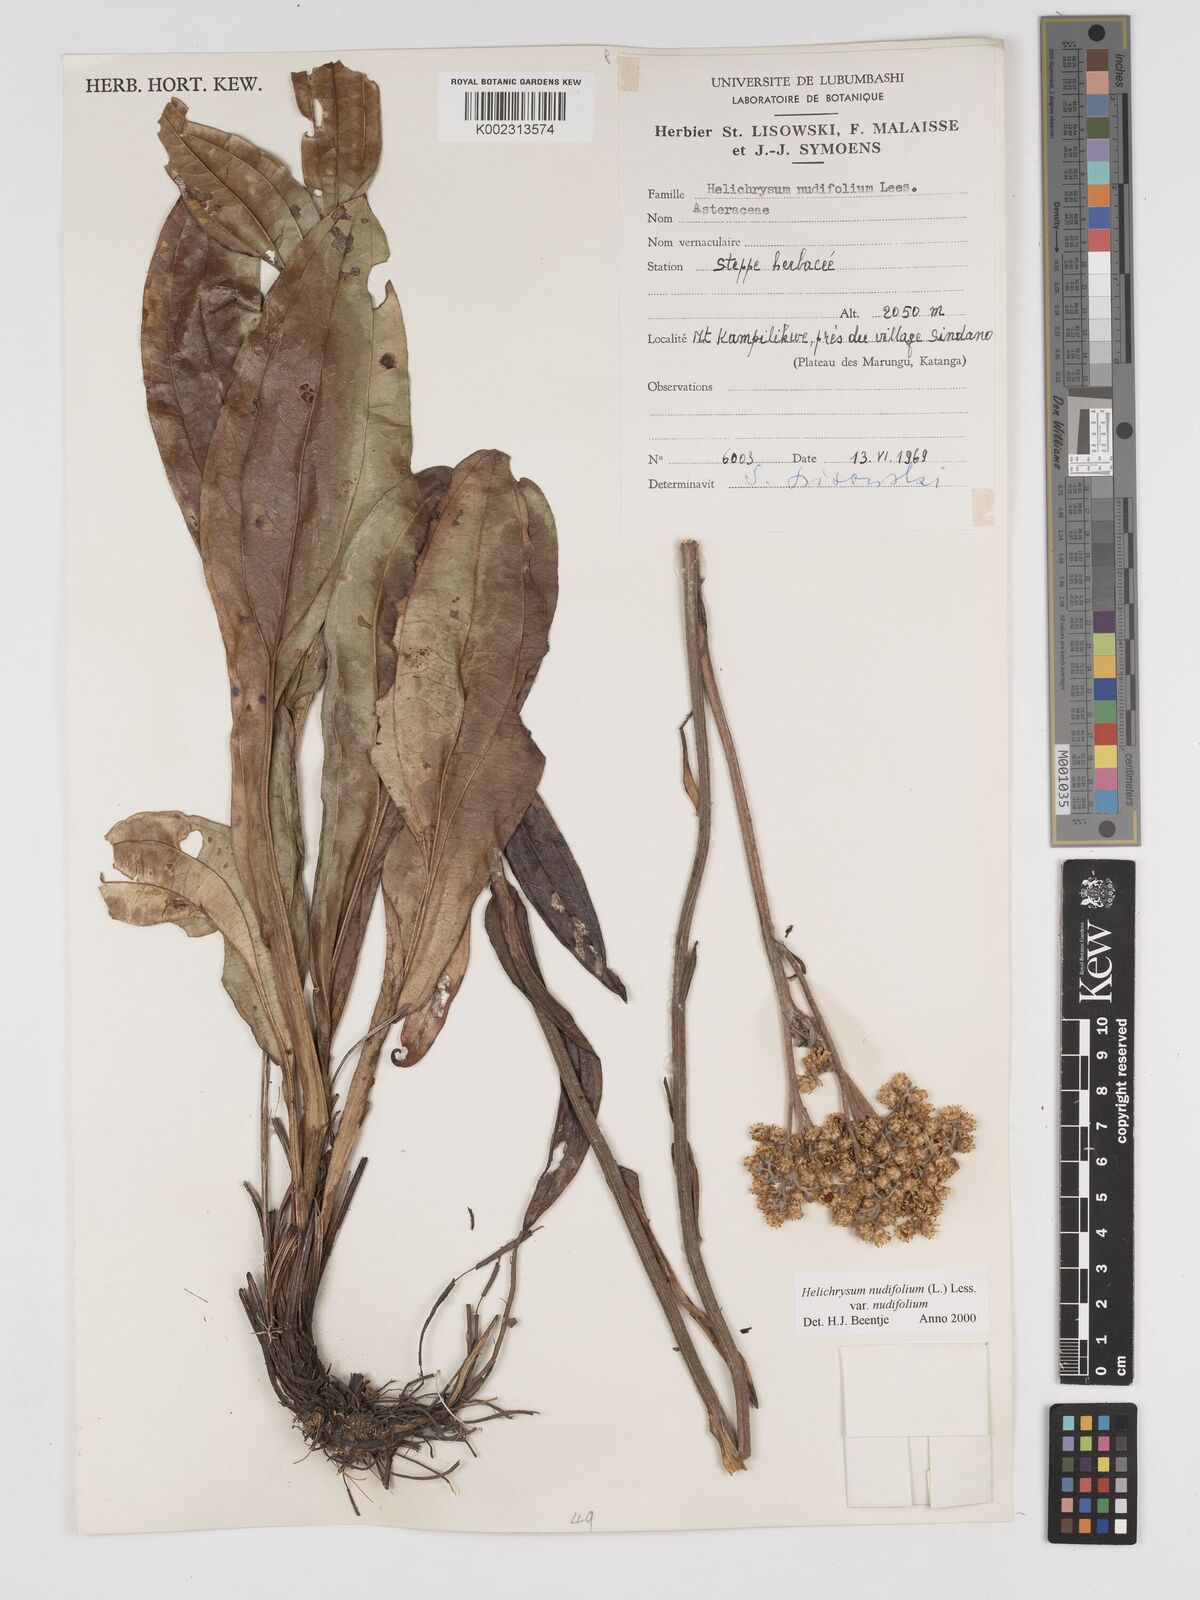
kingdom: Plantae
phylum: Tracheophyta
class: Magnoliopsida
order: Asterales
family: Asteraceae
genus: Helichrysum
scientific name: Helichrysum nudifolium
